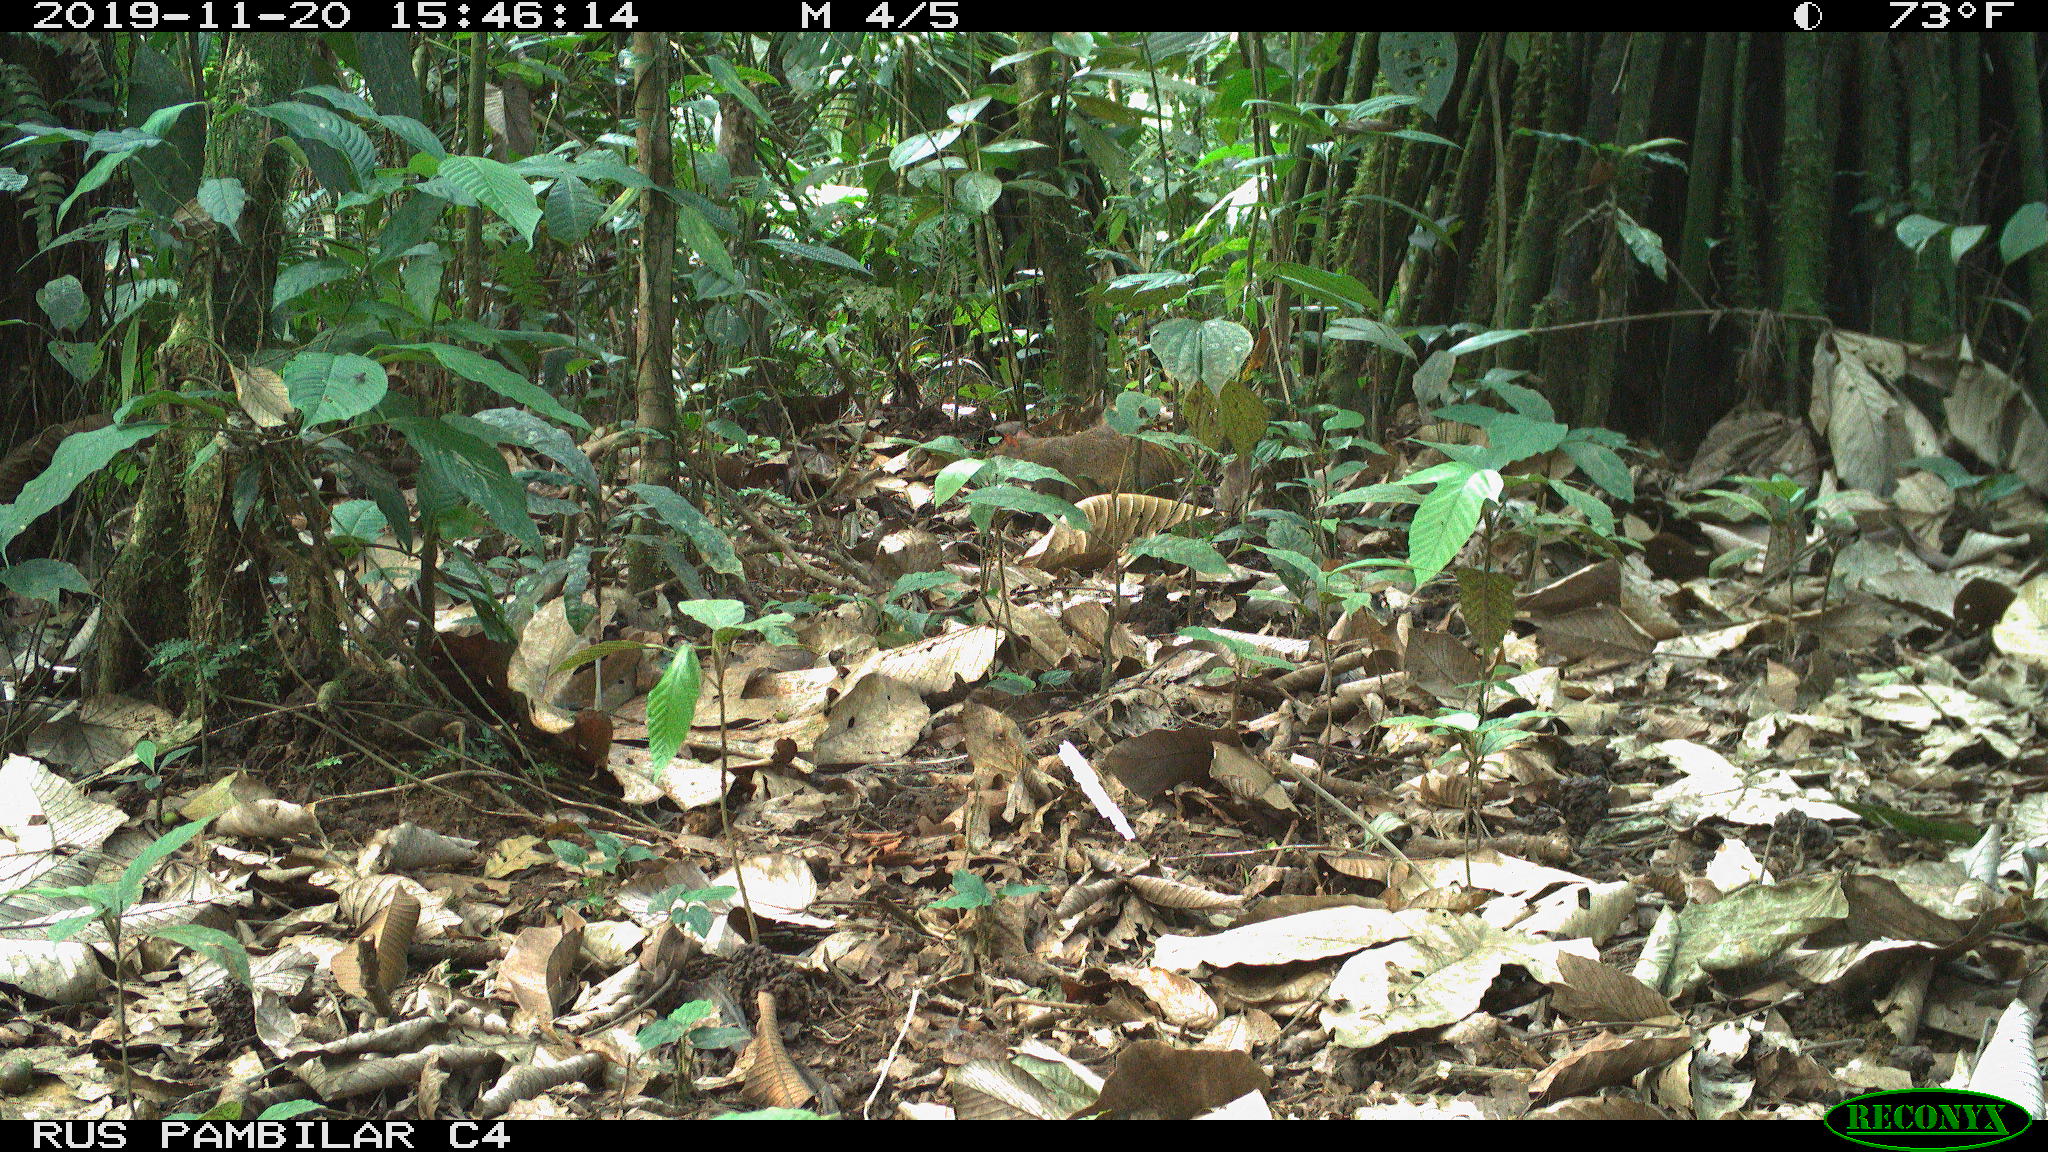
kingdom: Animalia
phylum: Chordata
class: Mammalia
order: Rodentia
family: Dasyproctidae
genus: Dasyprocta
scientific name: Dasyprocta punctata
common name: Central american agouti
